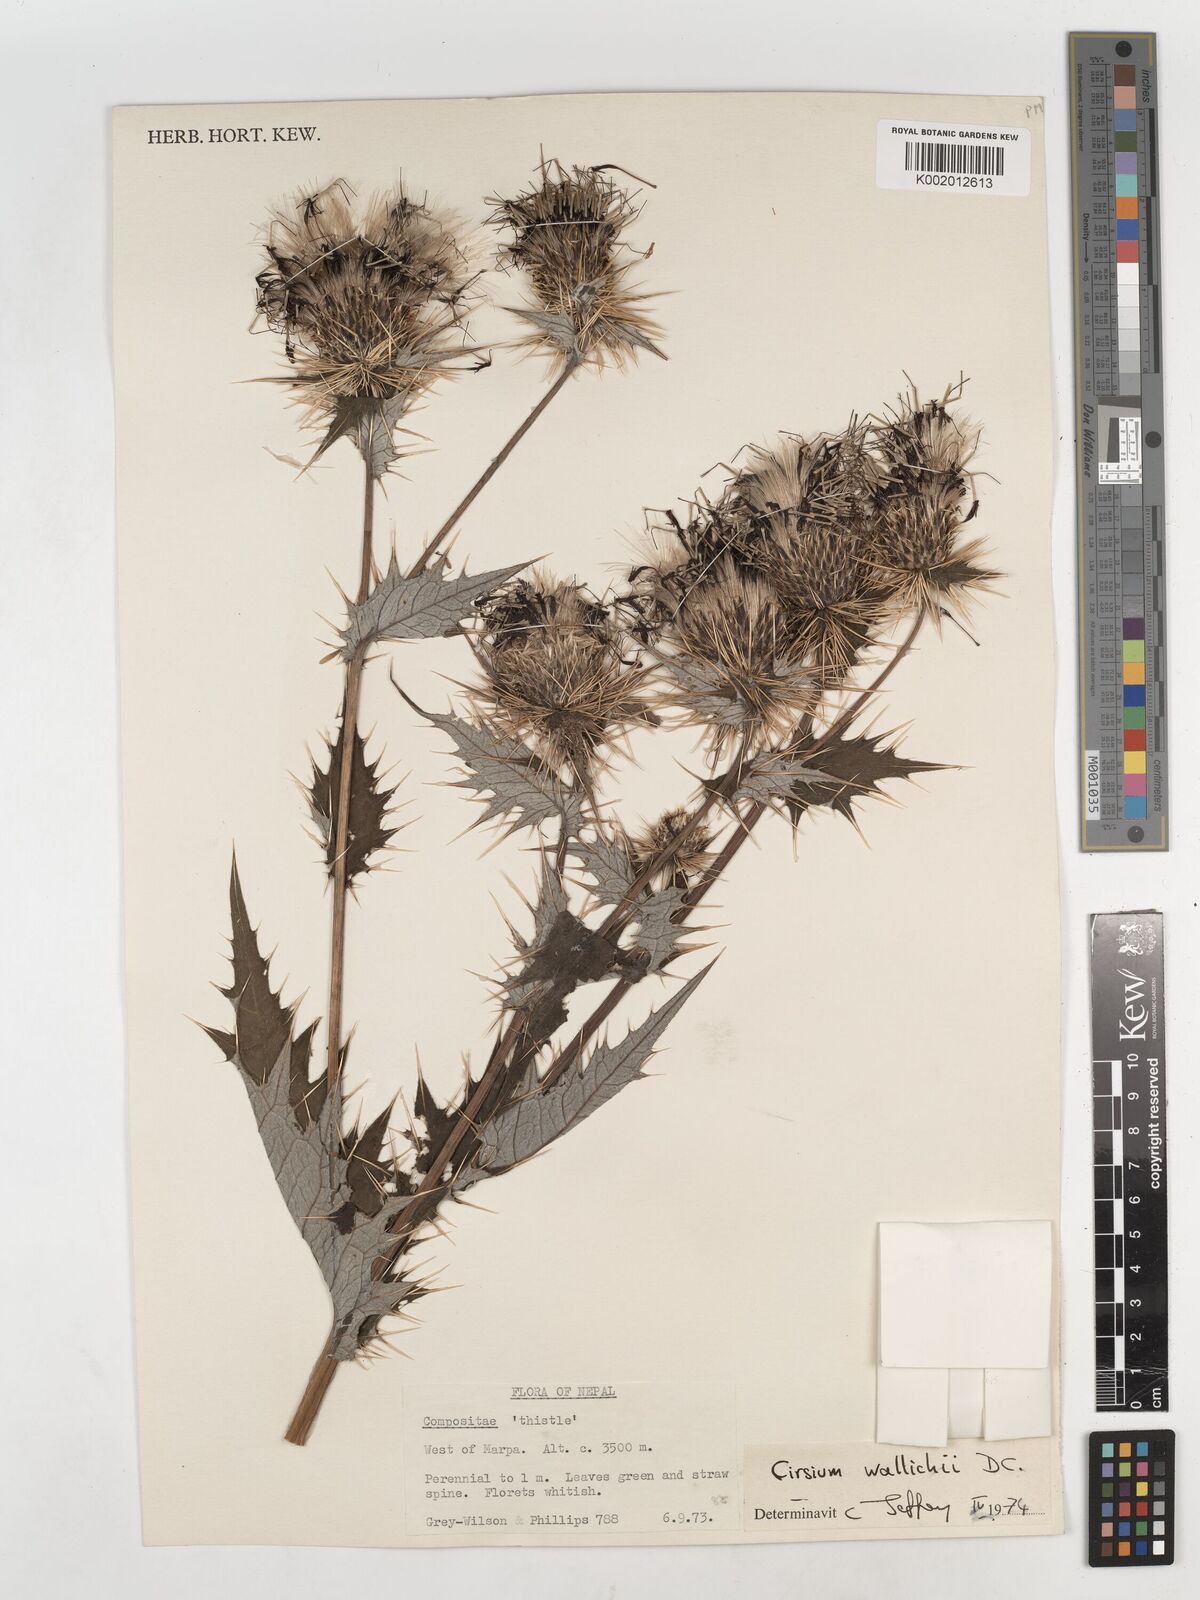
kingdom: Plantae
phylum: Tracheophyta
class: Magnoliopsida
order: Asterales
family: Asteraceae
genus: Cirsium
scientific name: Cirsium wallichii
